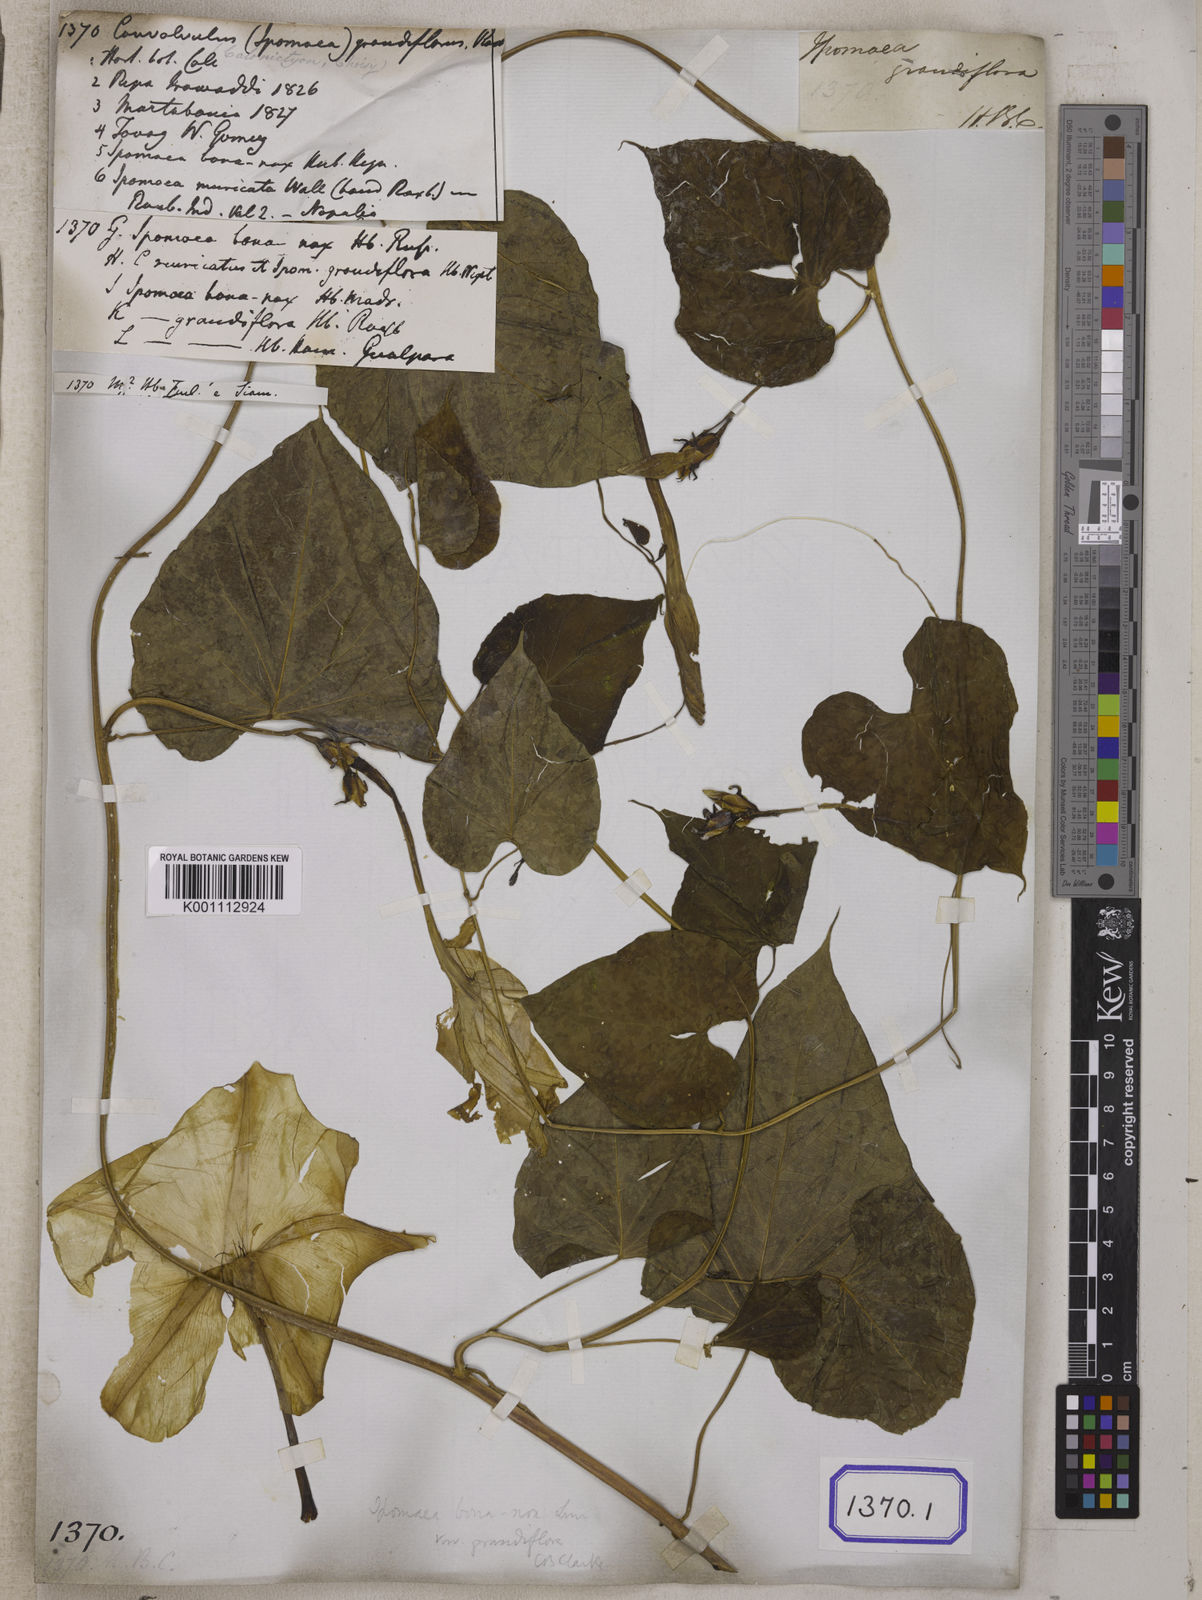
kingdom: Plantae
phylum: Tracheophyta
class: Magnoliopsida
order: Solanales
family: Convolvulaceae
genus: Convolvulus
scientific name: Convolvulus
